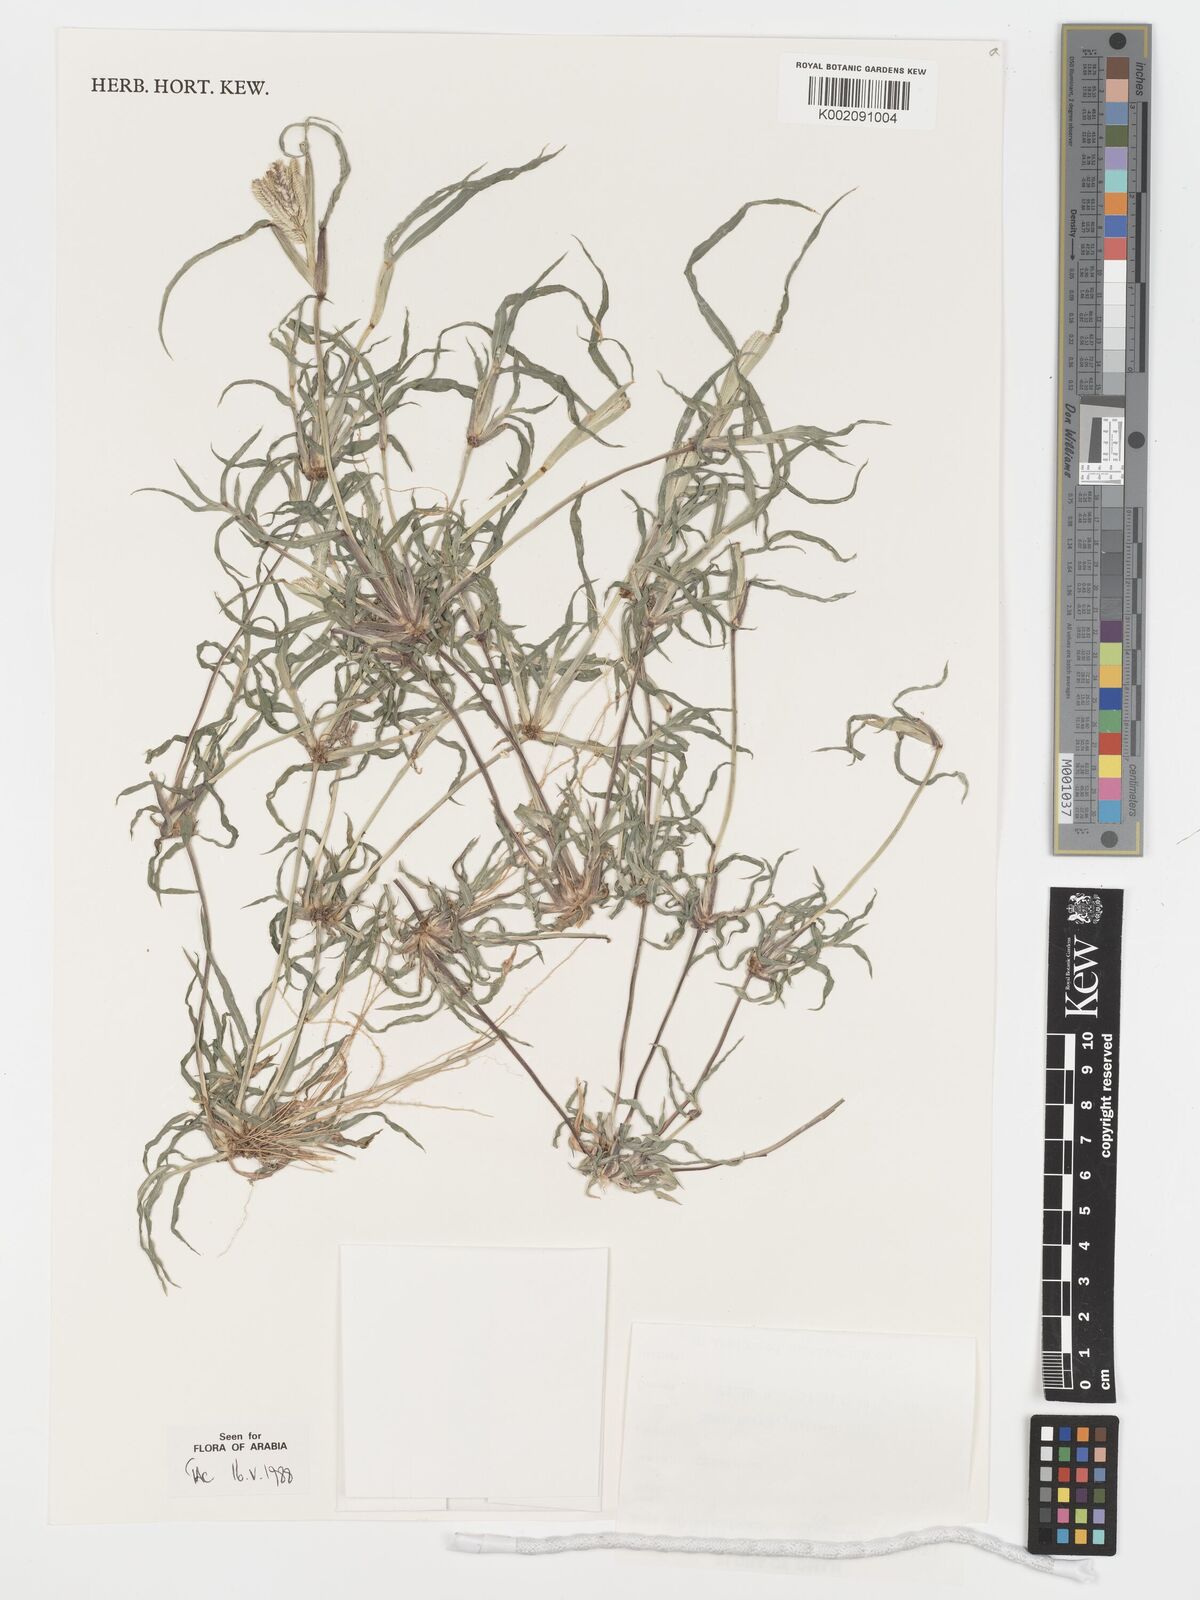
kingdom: Plantae
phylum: Tracheophyta
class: Liliopsida
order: Poales
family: Poaceae
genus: Dactyloctenium
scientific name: Dactyloctenium aegyptium
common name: Egyptian grass
